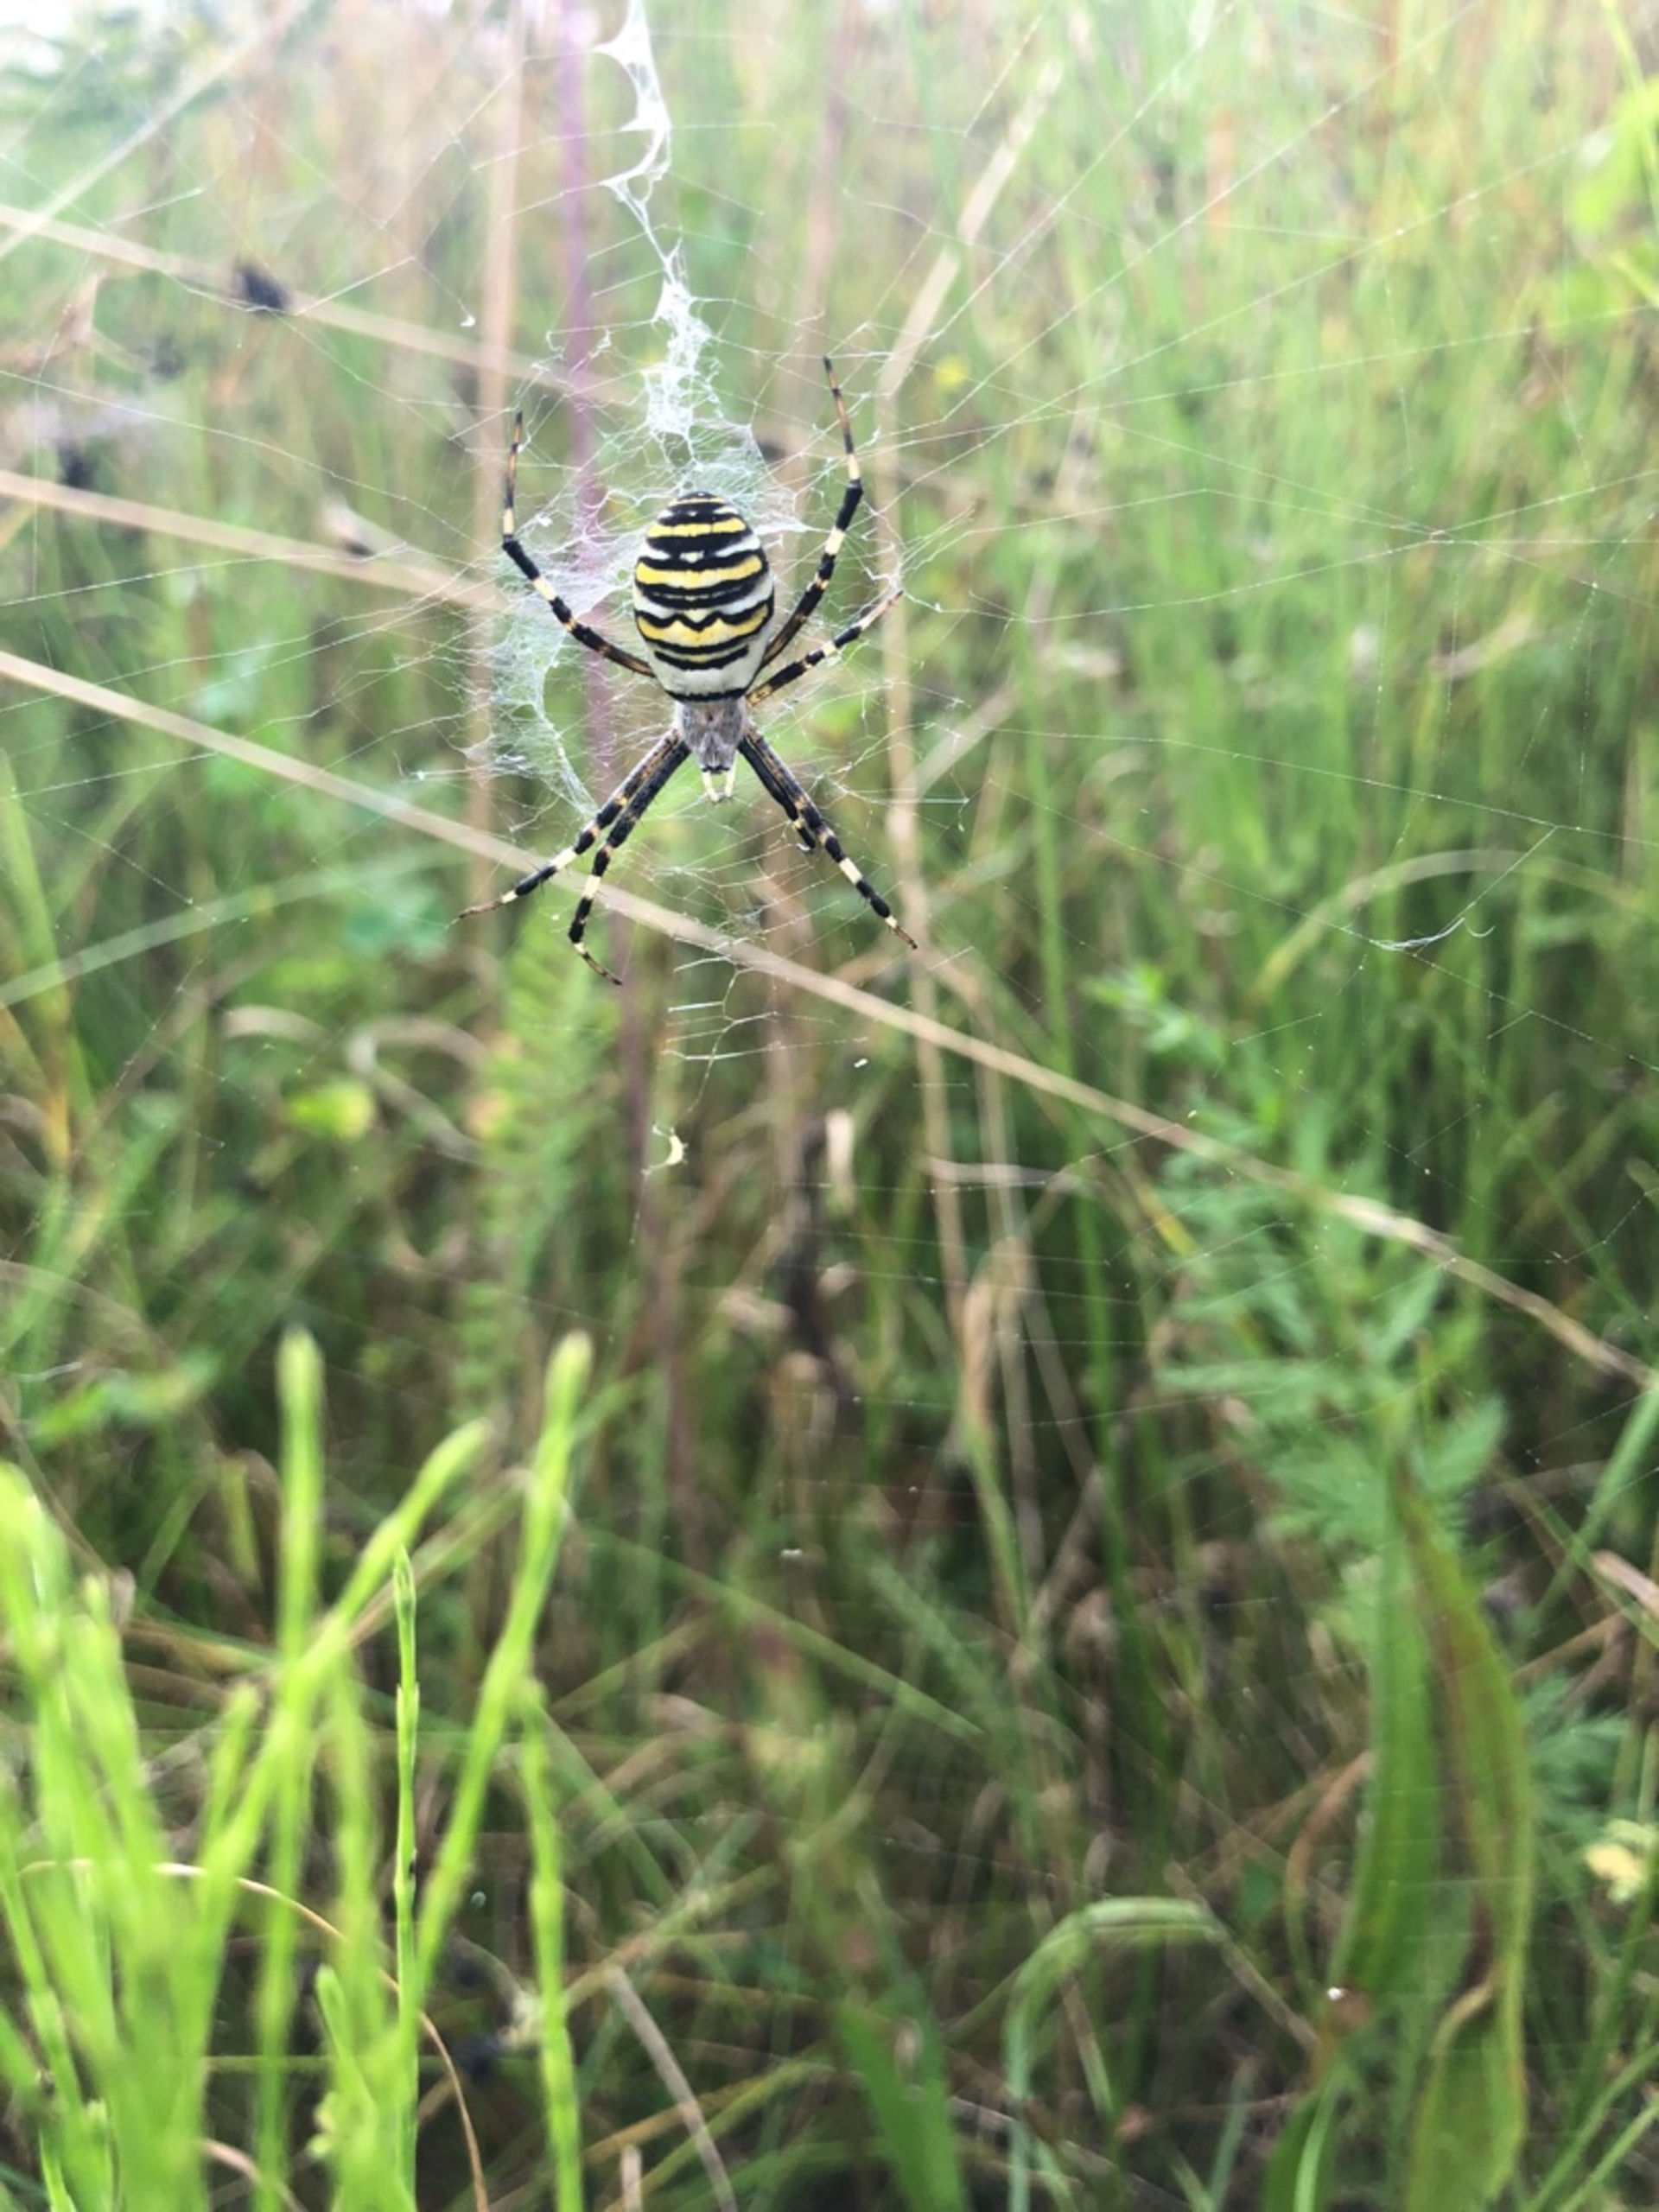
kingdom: Animalia
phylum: Arthropoda
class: Arachnida
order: Araneae
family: Araneidae
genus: Argiope
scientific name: Argiope bruennichi
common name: Hvepseedderkop
